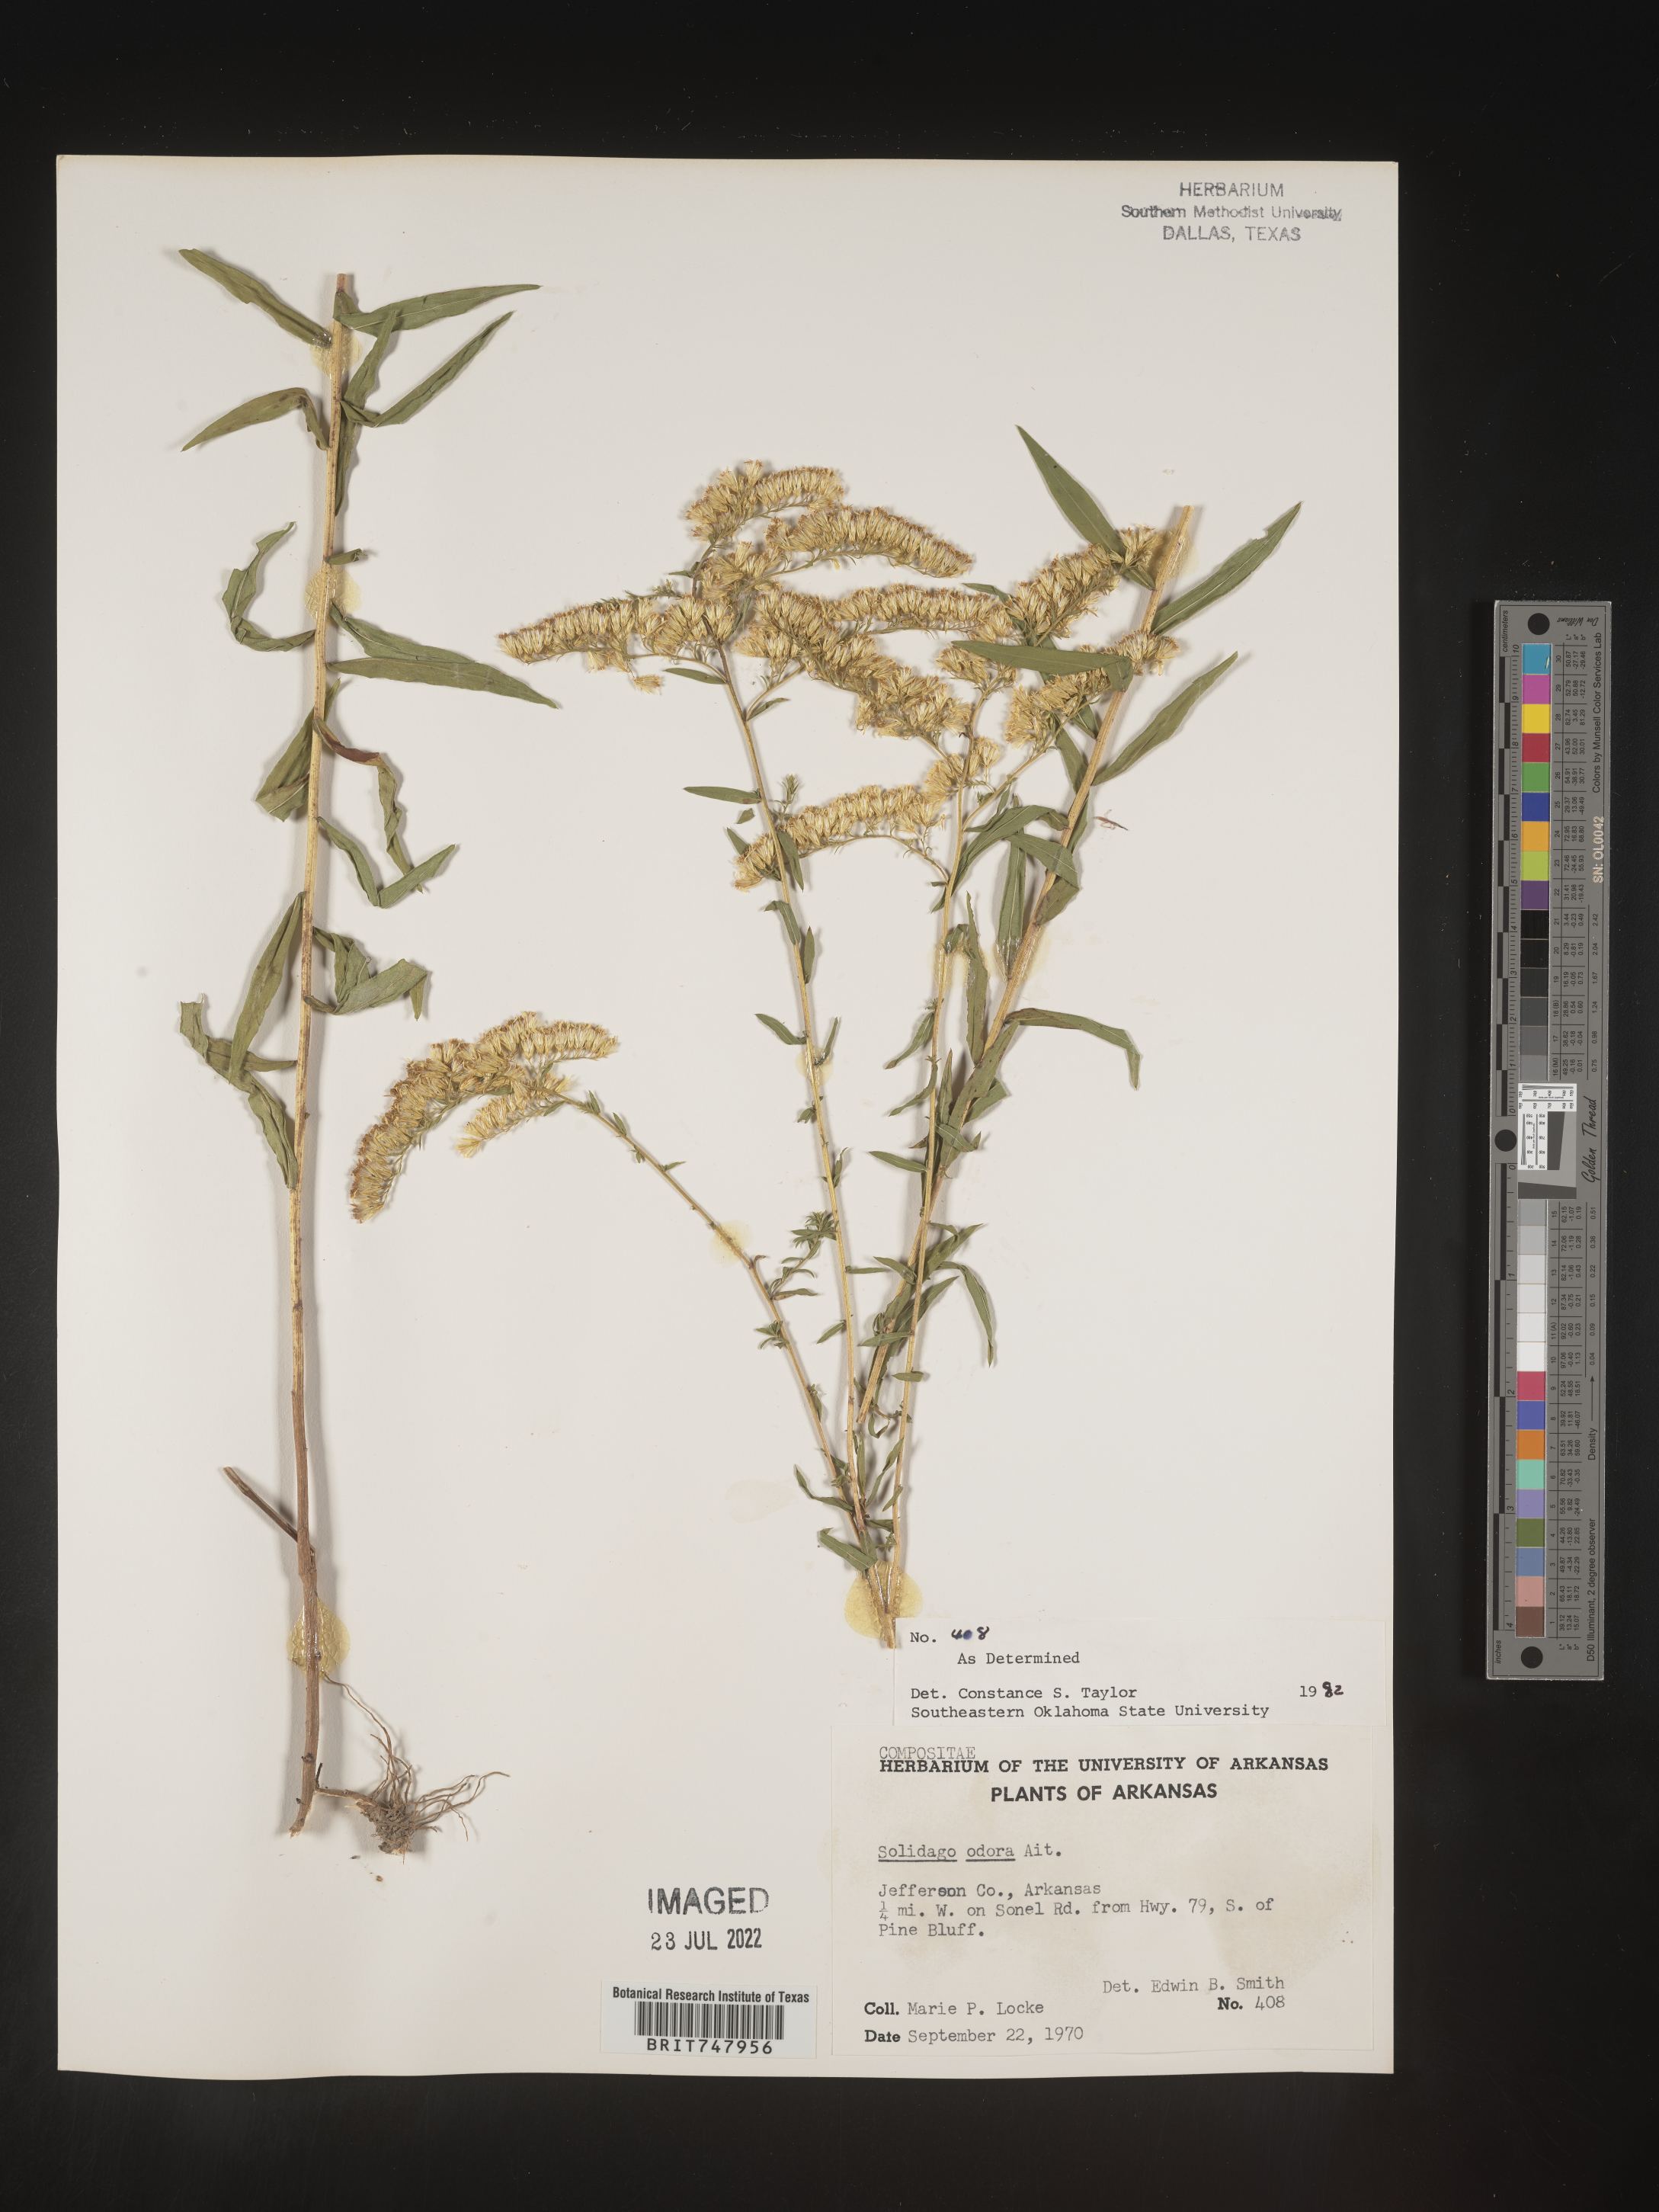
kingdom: Plantae
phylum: Tracheophyta
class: Magnoliopsida
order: Asterales
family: Asteraceae
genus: Solidago
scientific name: Solidago odora
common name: Anise-scented goldenrod
